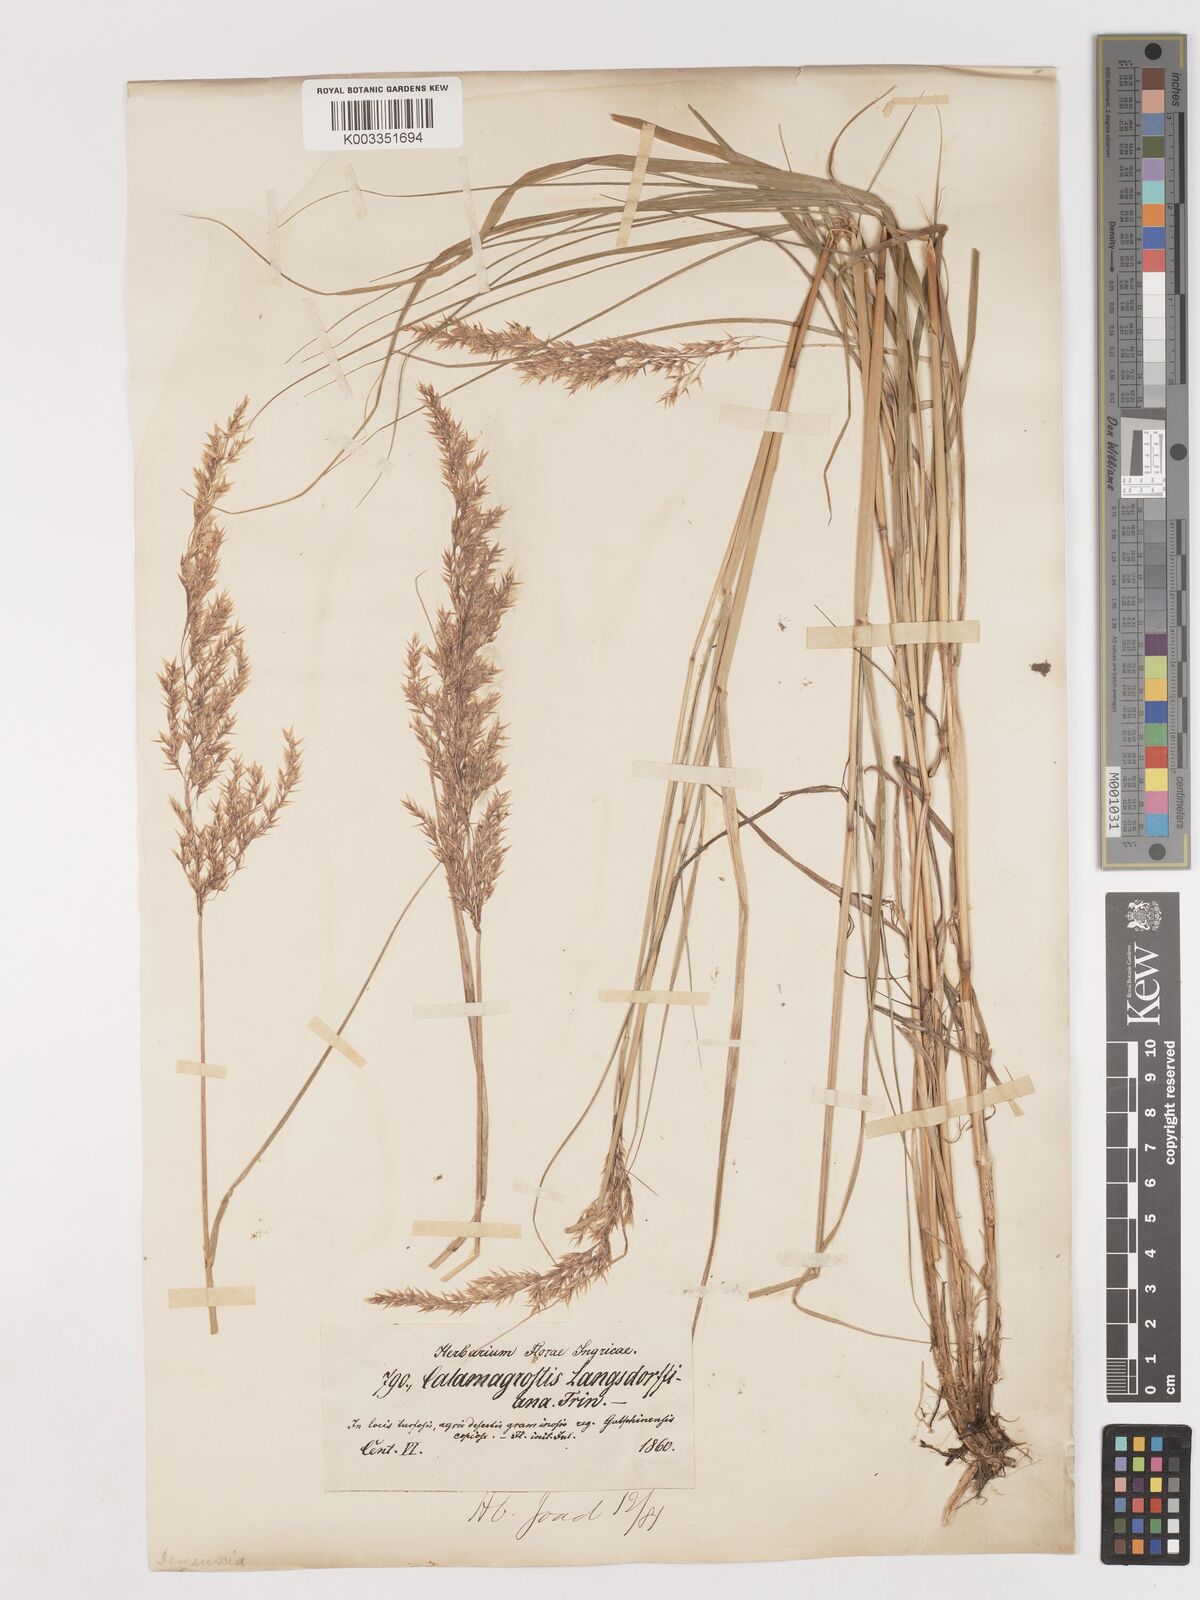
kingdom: Plantae
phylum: Tracheophyta
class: Liliopsida
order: Poales
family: Poaceae
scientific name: Poaceae
